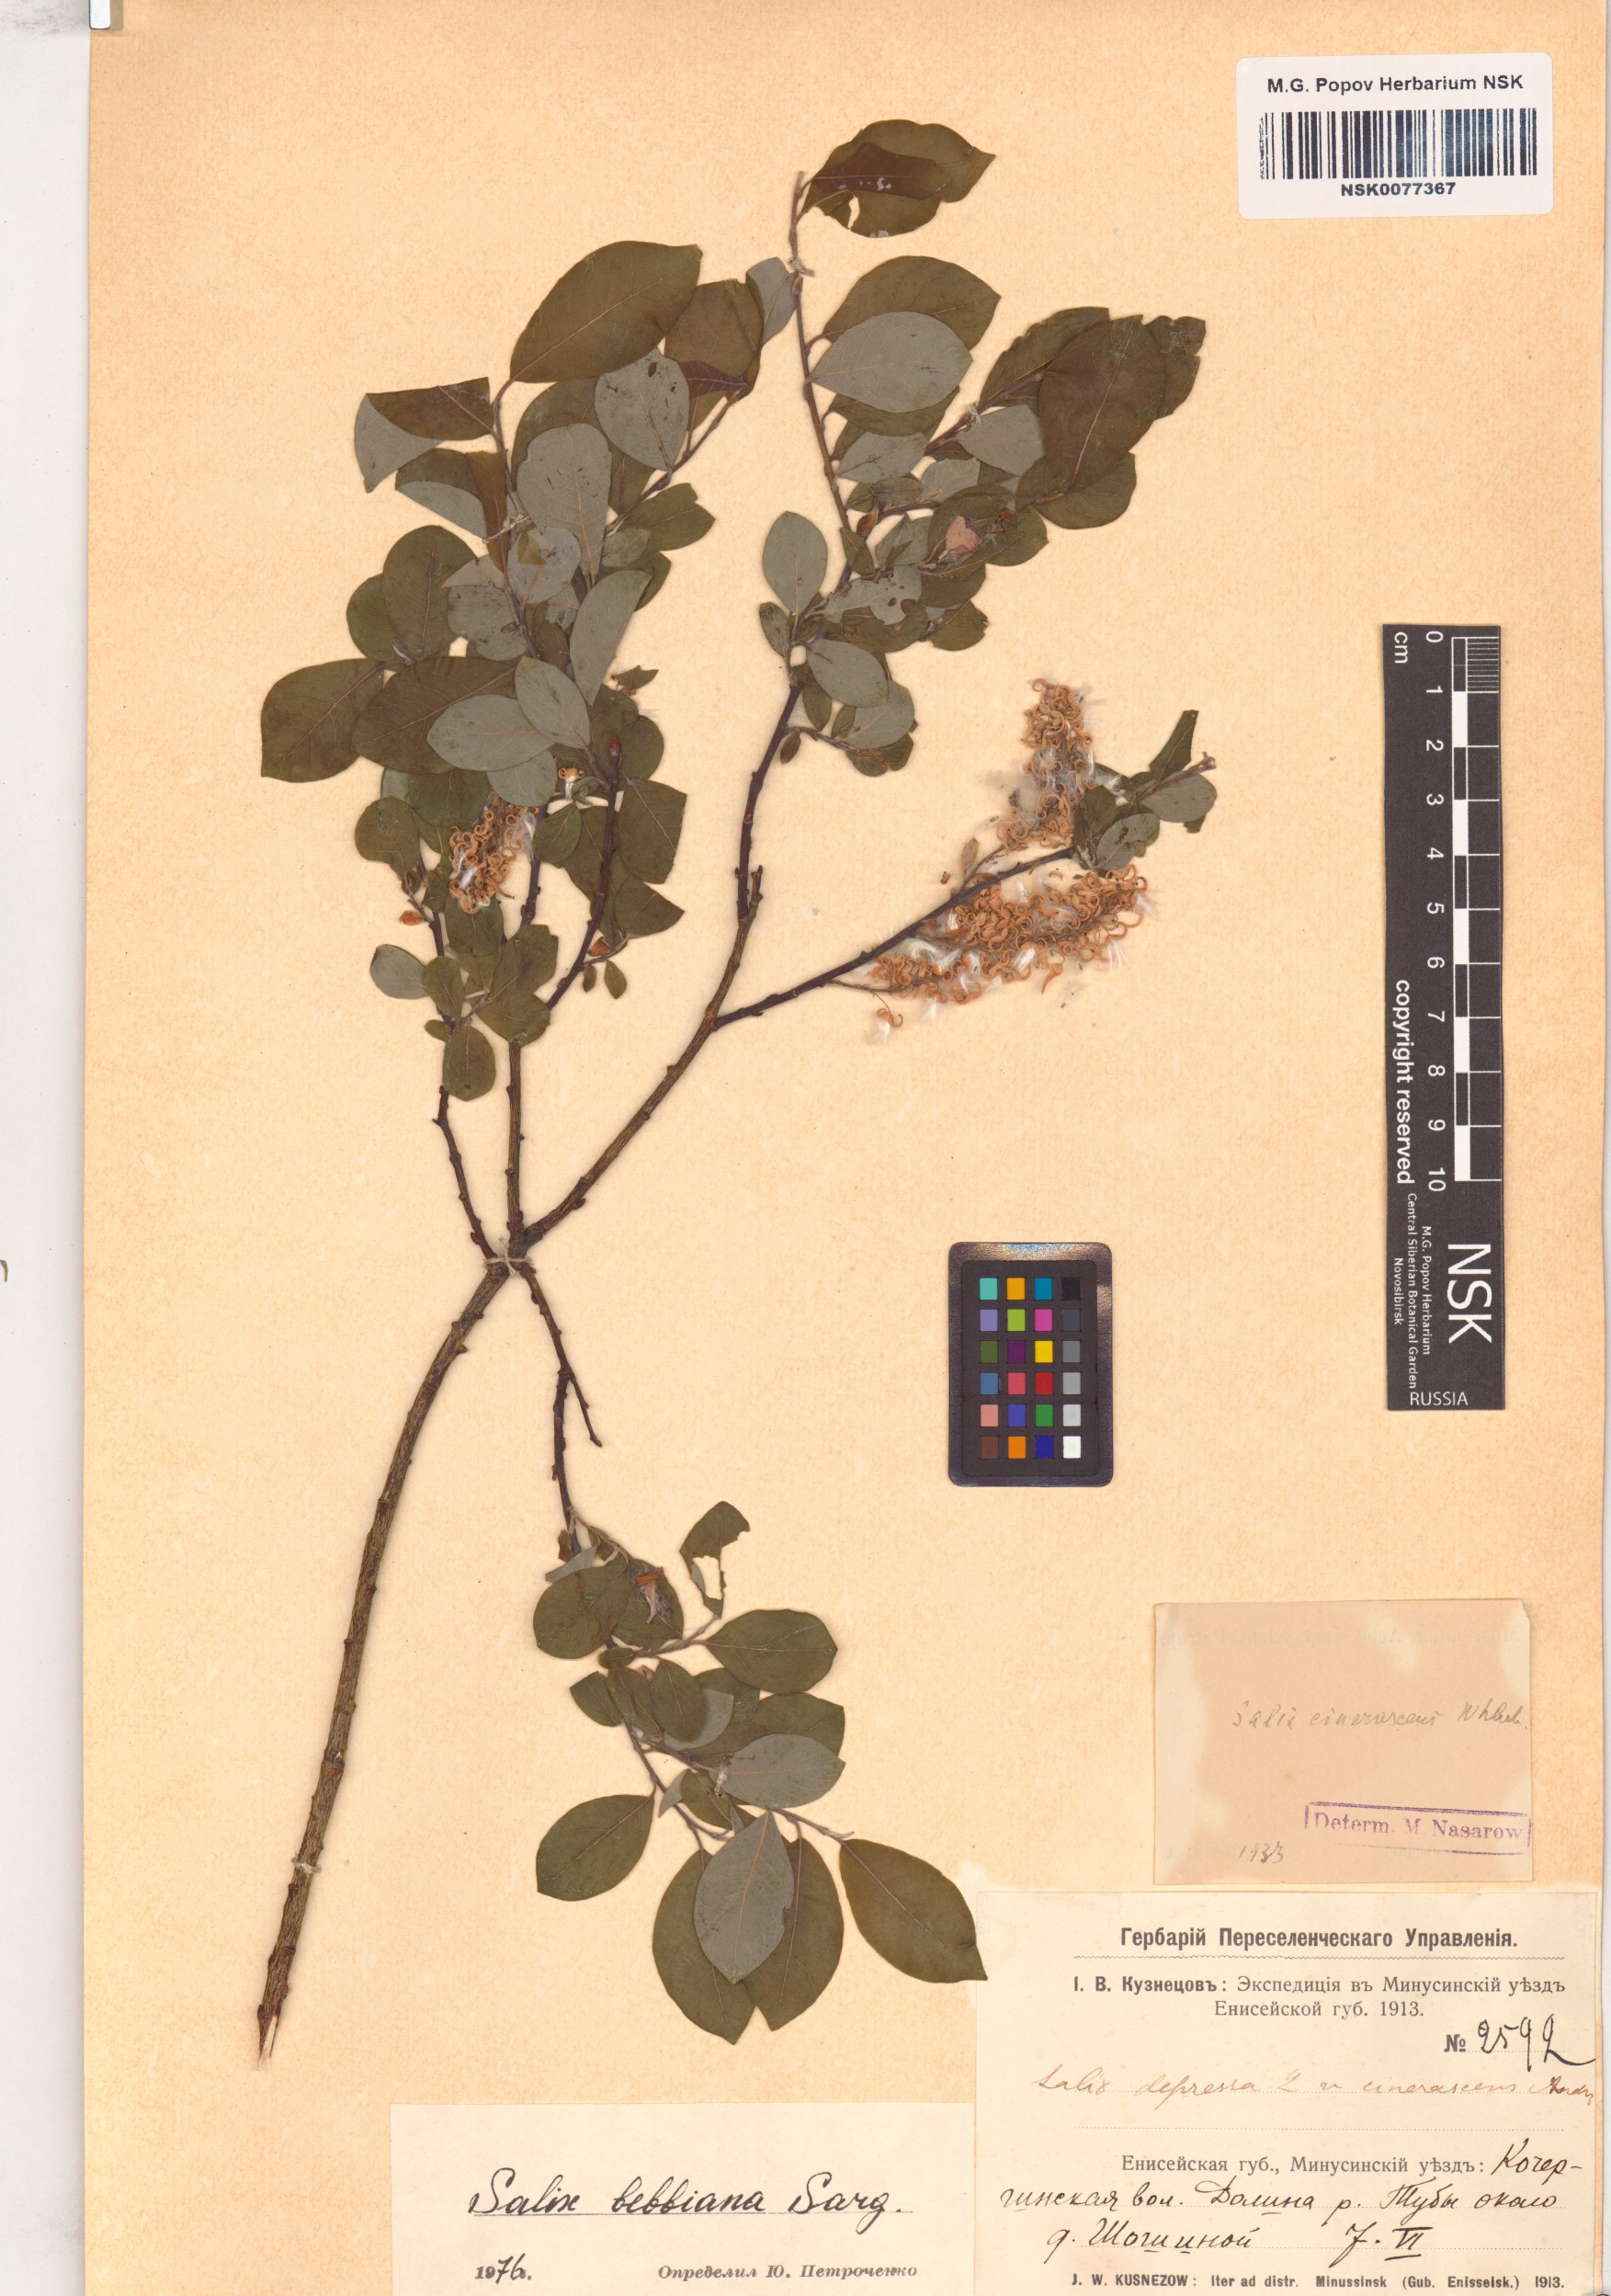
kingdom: Plantae
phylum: Tracheophyta
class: Magnoliopsida
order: Malpighiales
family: Salicaceae
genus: Salix
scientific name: Salix bebbiana
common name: Bebb's willow
